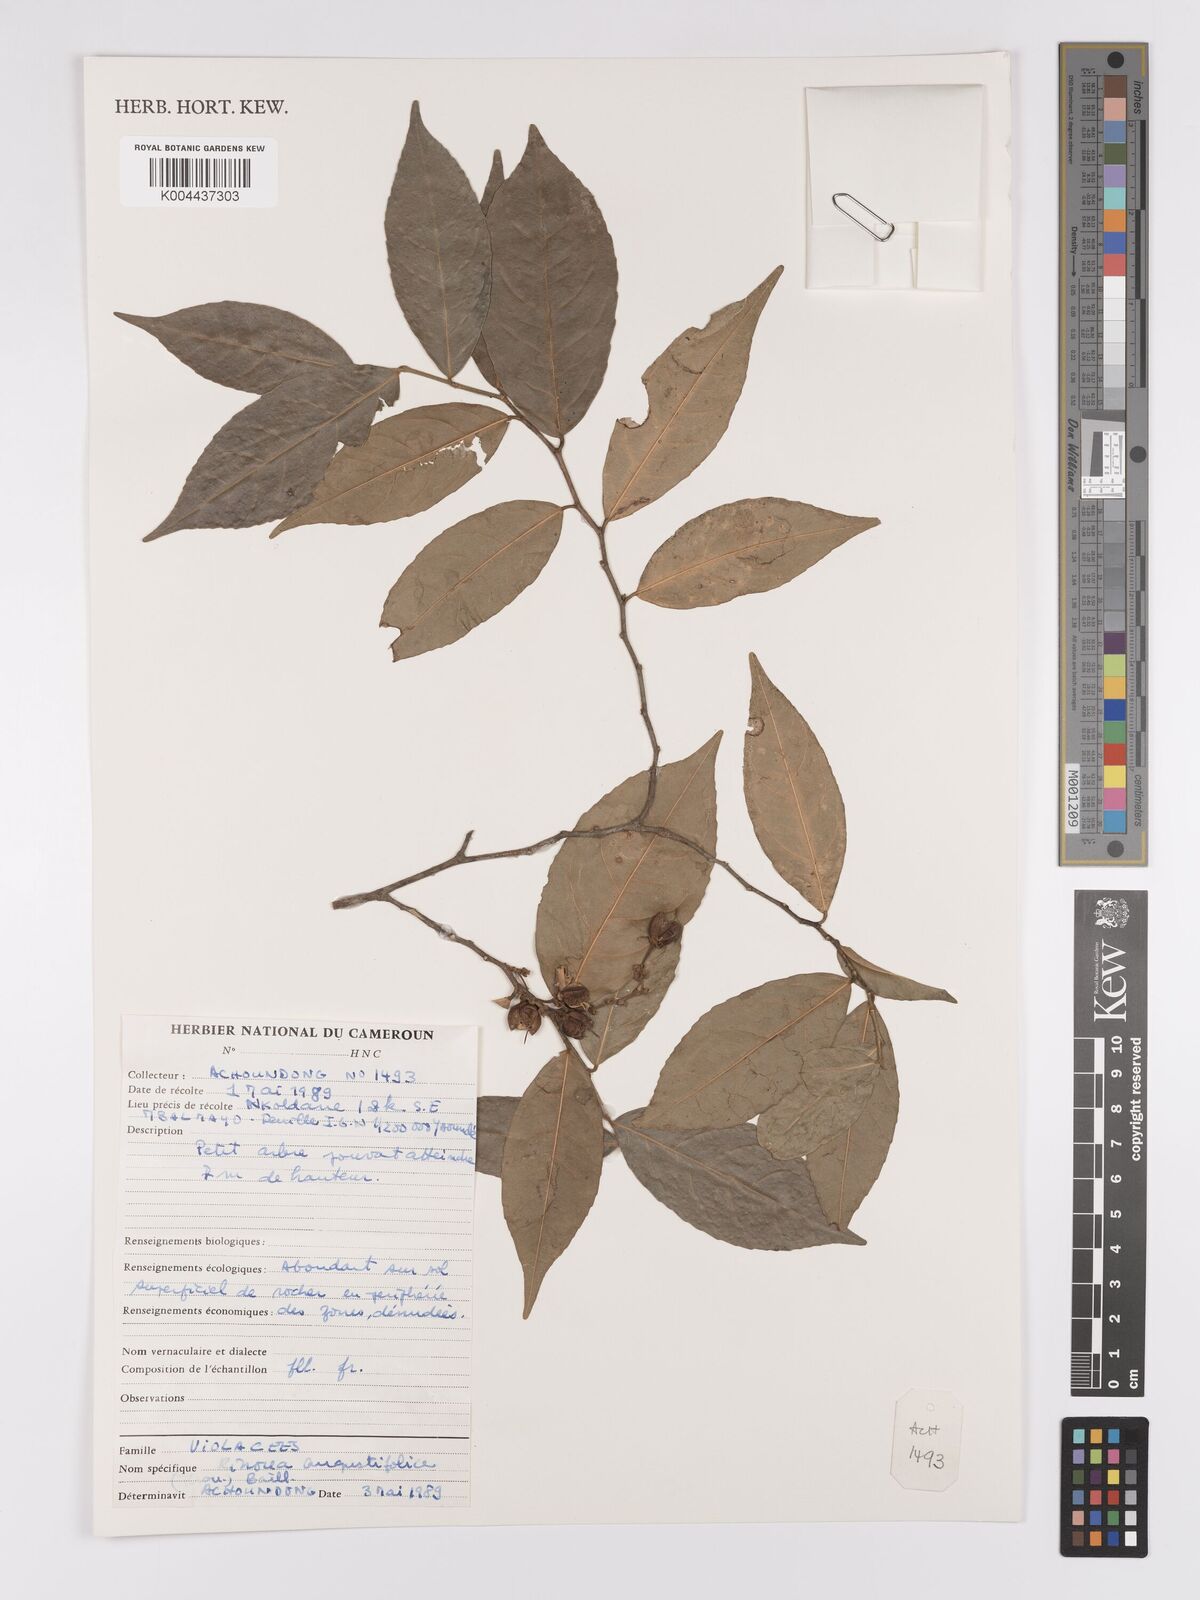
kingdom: Plantae
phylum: Tracheophyta
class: Magnoliopsida
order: Malpighiales
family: Violaceae
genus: Rinorea
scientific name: Rinorea angustifolia
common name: White violet-bush
